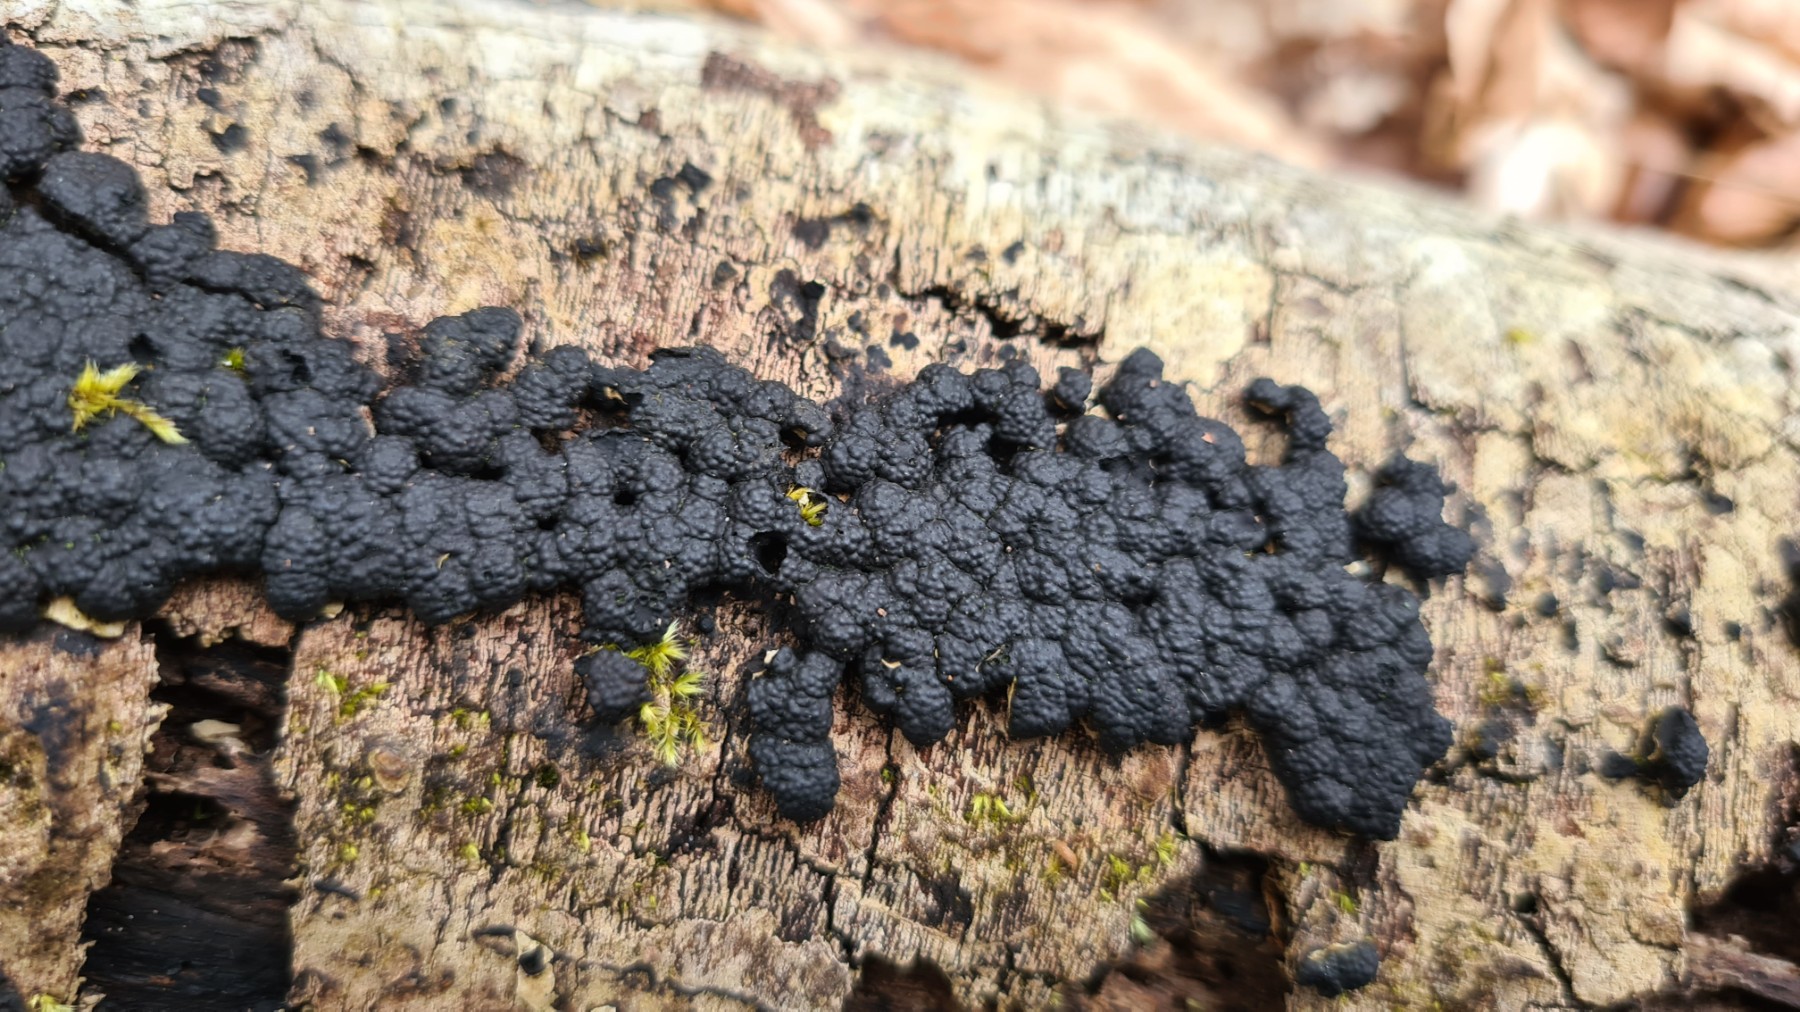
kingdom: Fungi
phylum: Ascomycota
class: Sordariomycetes
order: Xylariales
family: Hypoxylaceae
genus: Jackrogersella
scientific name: Jackrogersella
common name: kulbær
